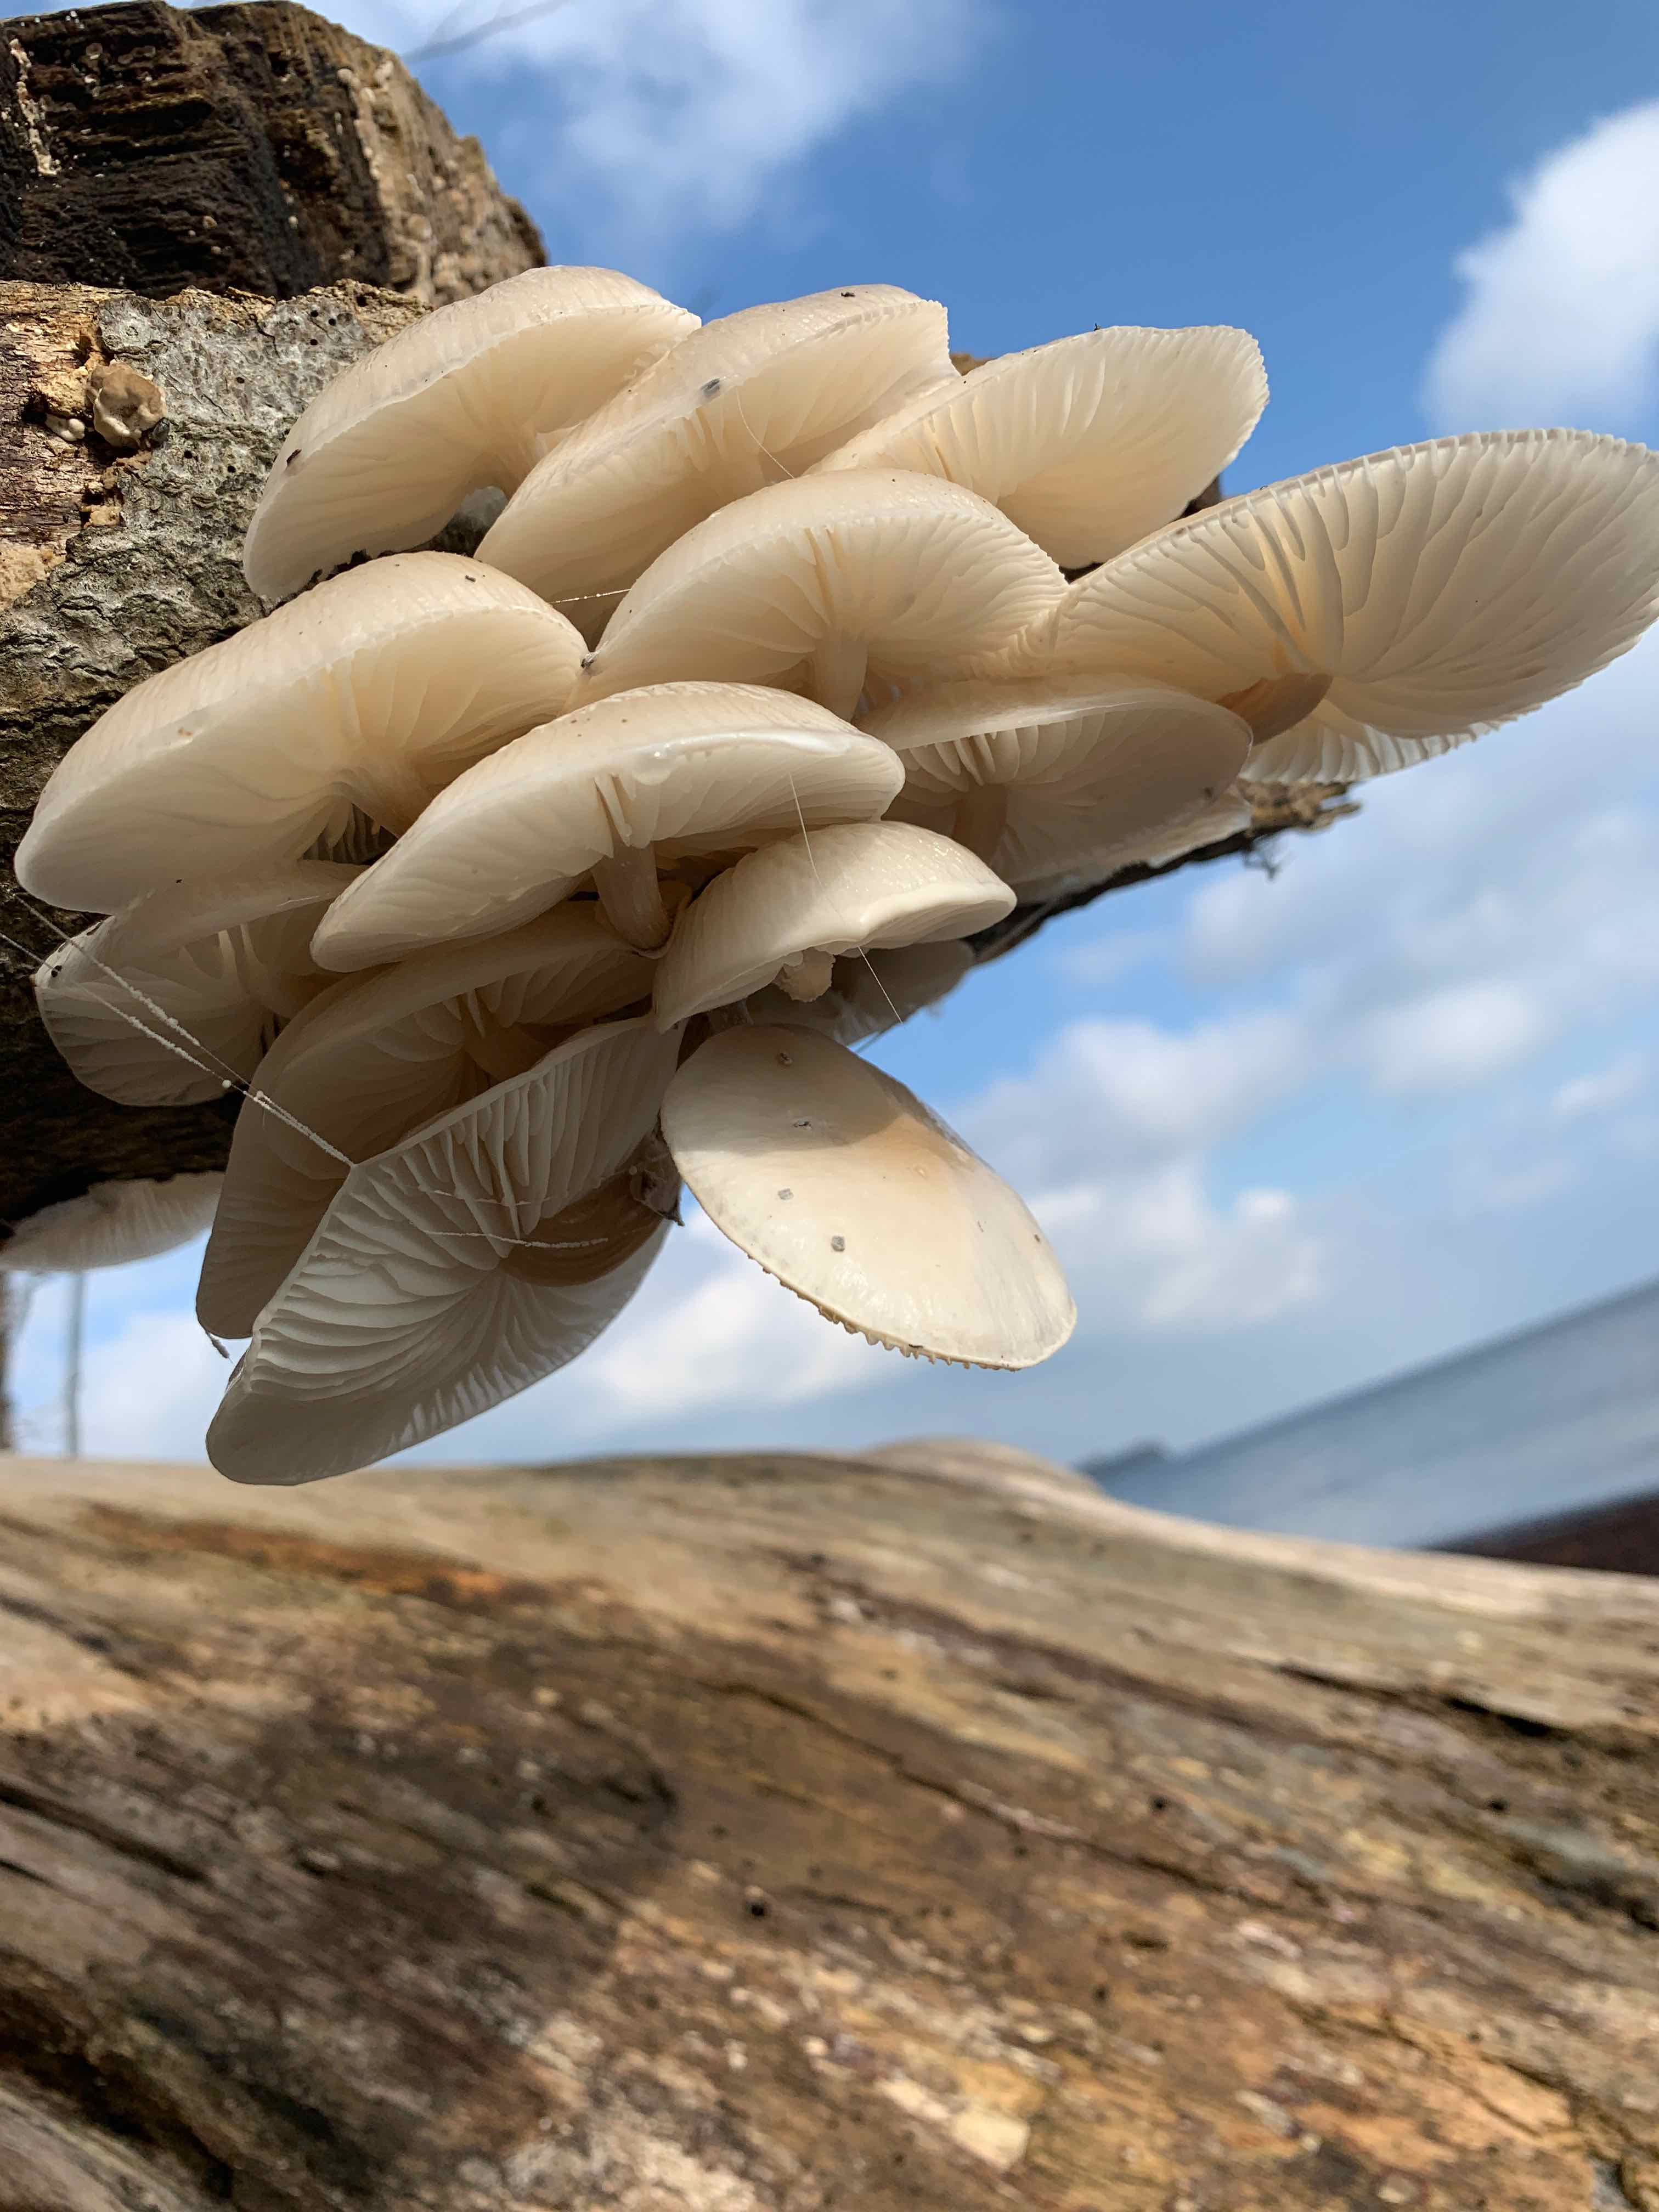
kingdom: Fungi
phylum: Basidiomycota
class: Agaricomycetes
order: Agaricales
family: Physalacriaceae
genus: Mucidula
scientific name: Mucidula mucida
